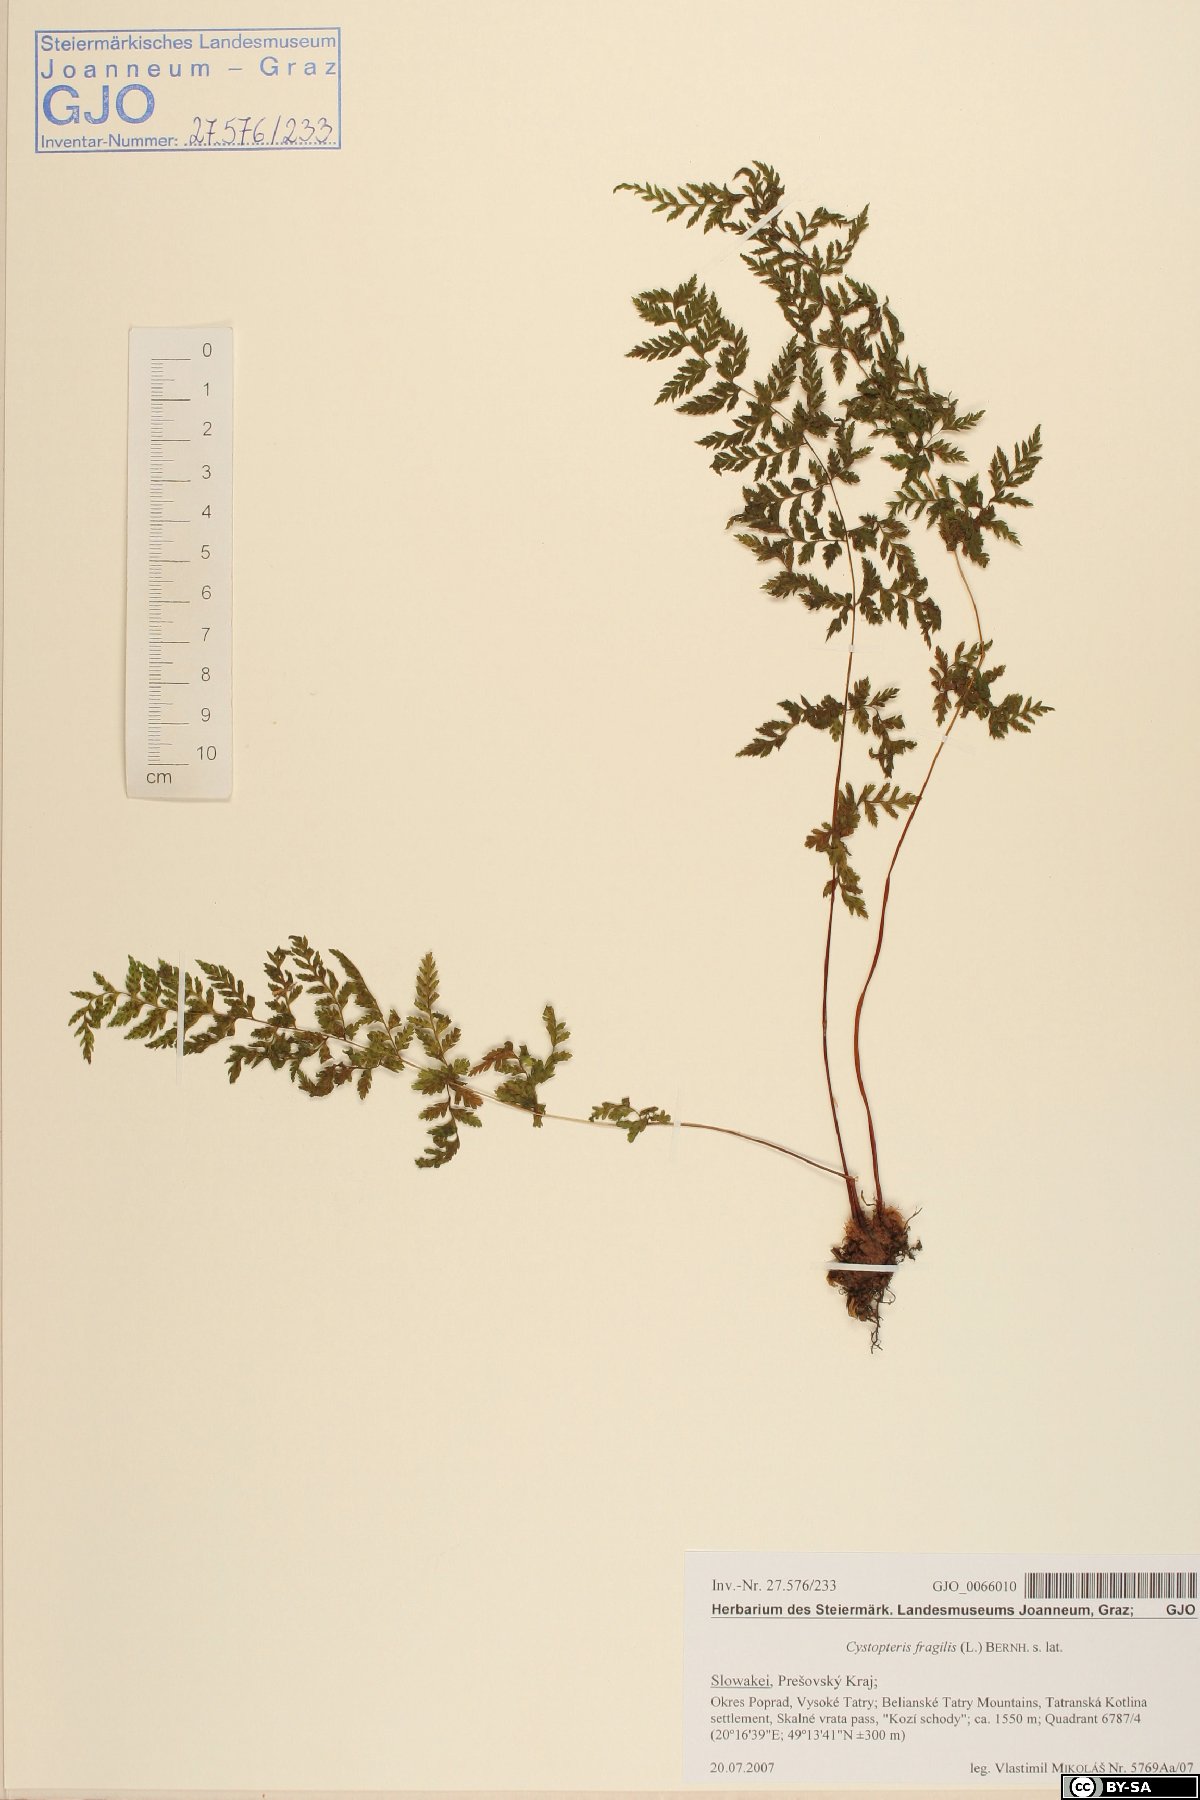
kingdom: Plantae
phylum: Tracheophyta
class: Polypodiopsida
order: Polypodiales
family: Cystopteridaceae
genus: Cystopteris
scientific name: Cystopteris fragilis
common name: Brittle bladder fern
